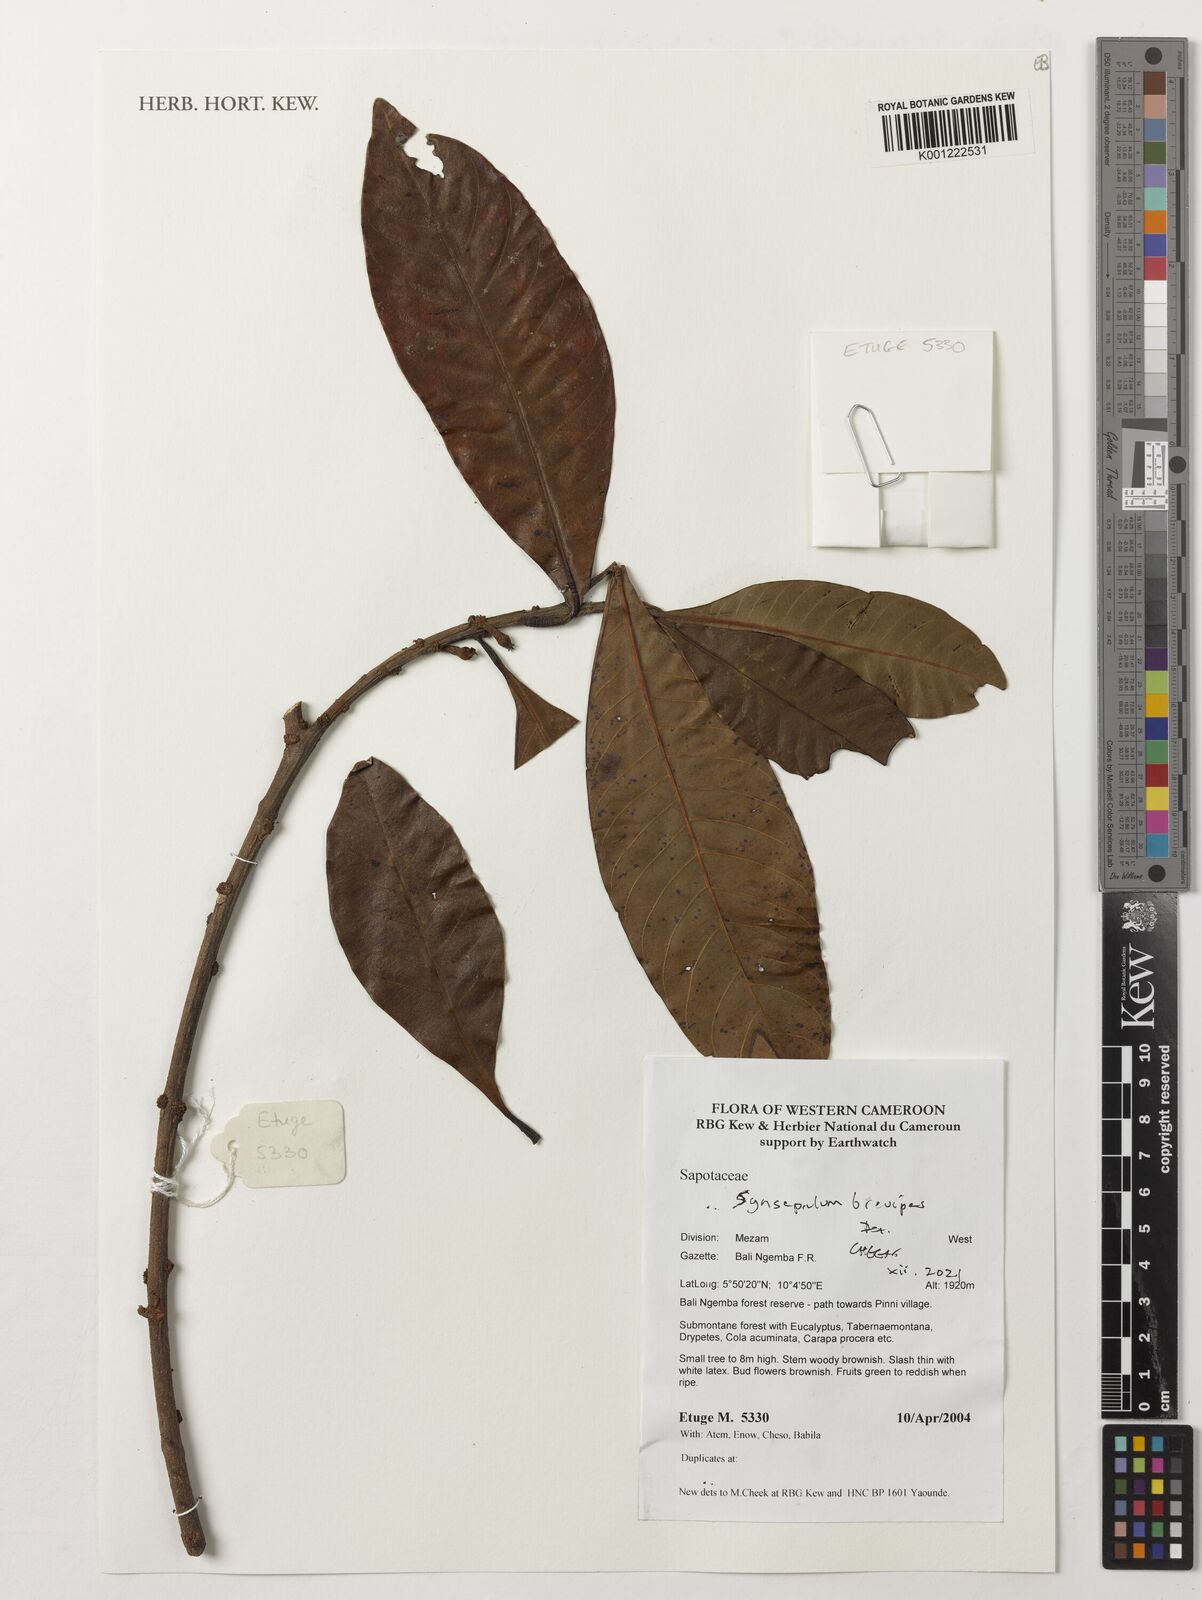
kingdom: Plantae
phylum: Tracheophyta
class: Magnoliopsida
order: Ericales
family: Sapotaceae
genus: Synsepalum
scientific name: Synsepalum brevipes
